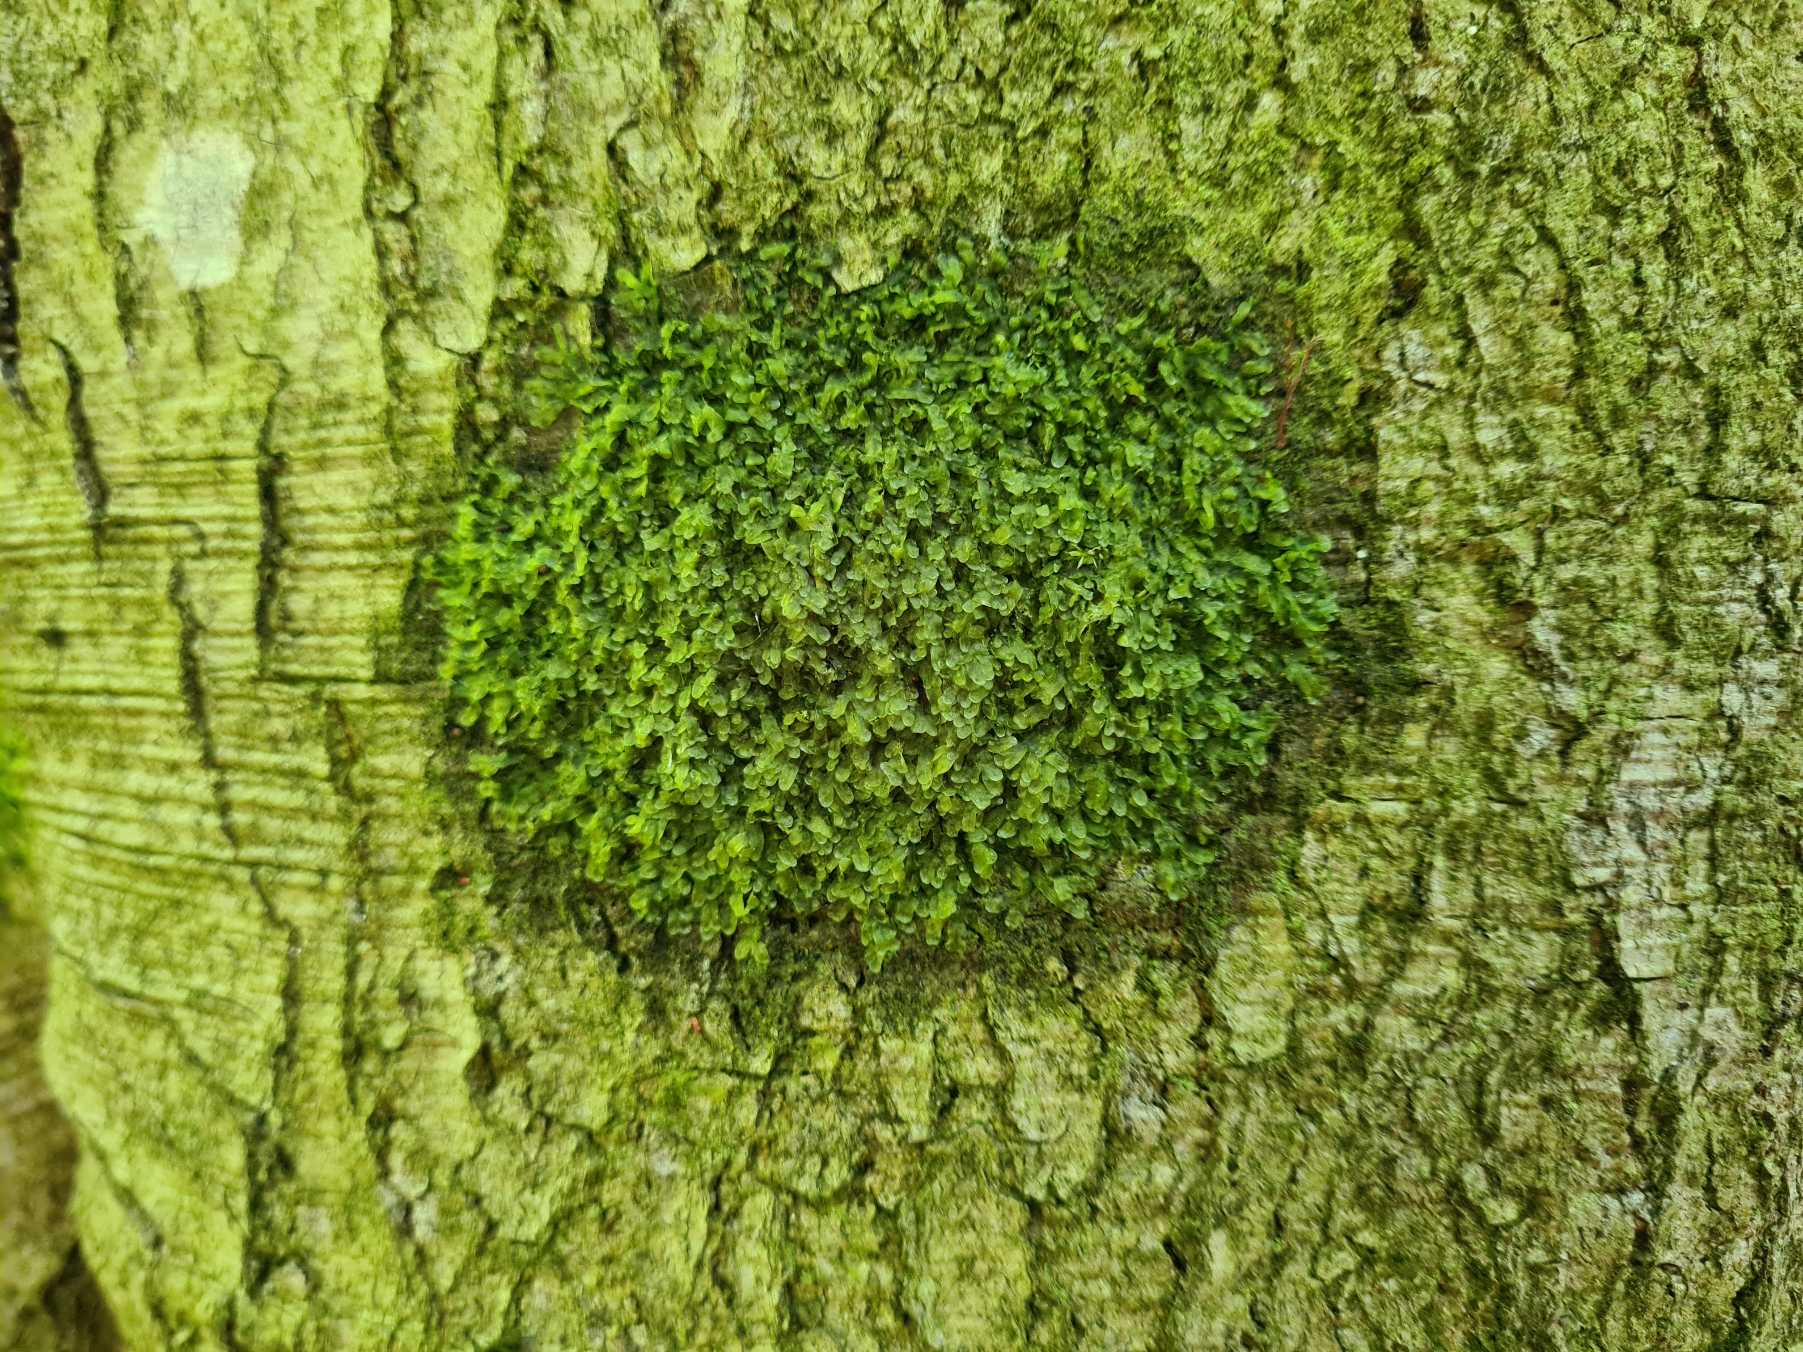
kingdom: Plantae
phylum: Marchantiophyta
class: Jungermanniopsida
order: Metzgeriales
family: Metzgeriaceae
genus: Metzgeria
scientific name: Metzgeria furcata
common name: Almindelig gaffelløv
